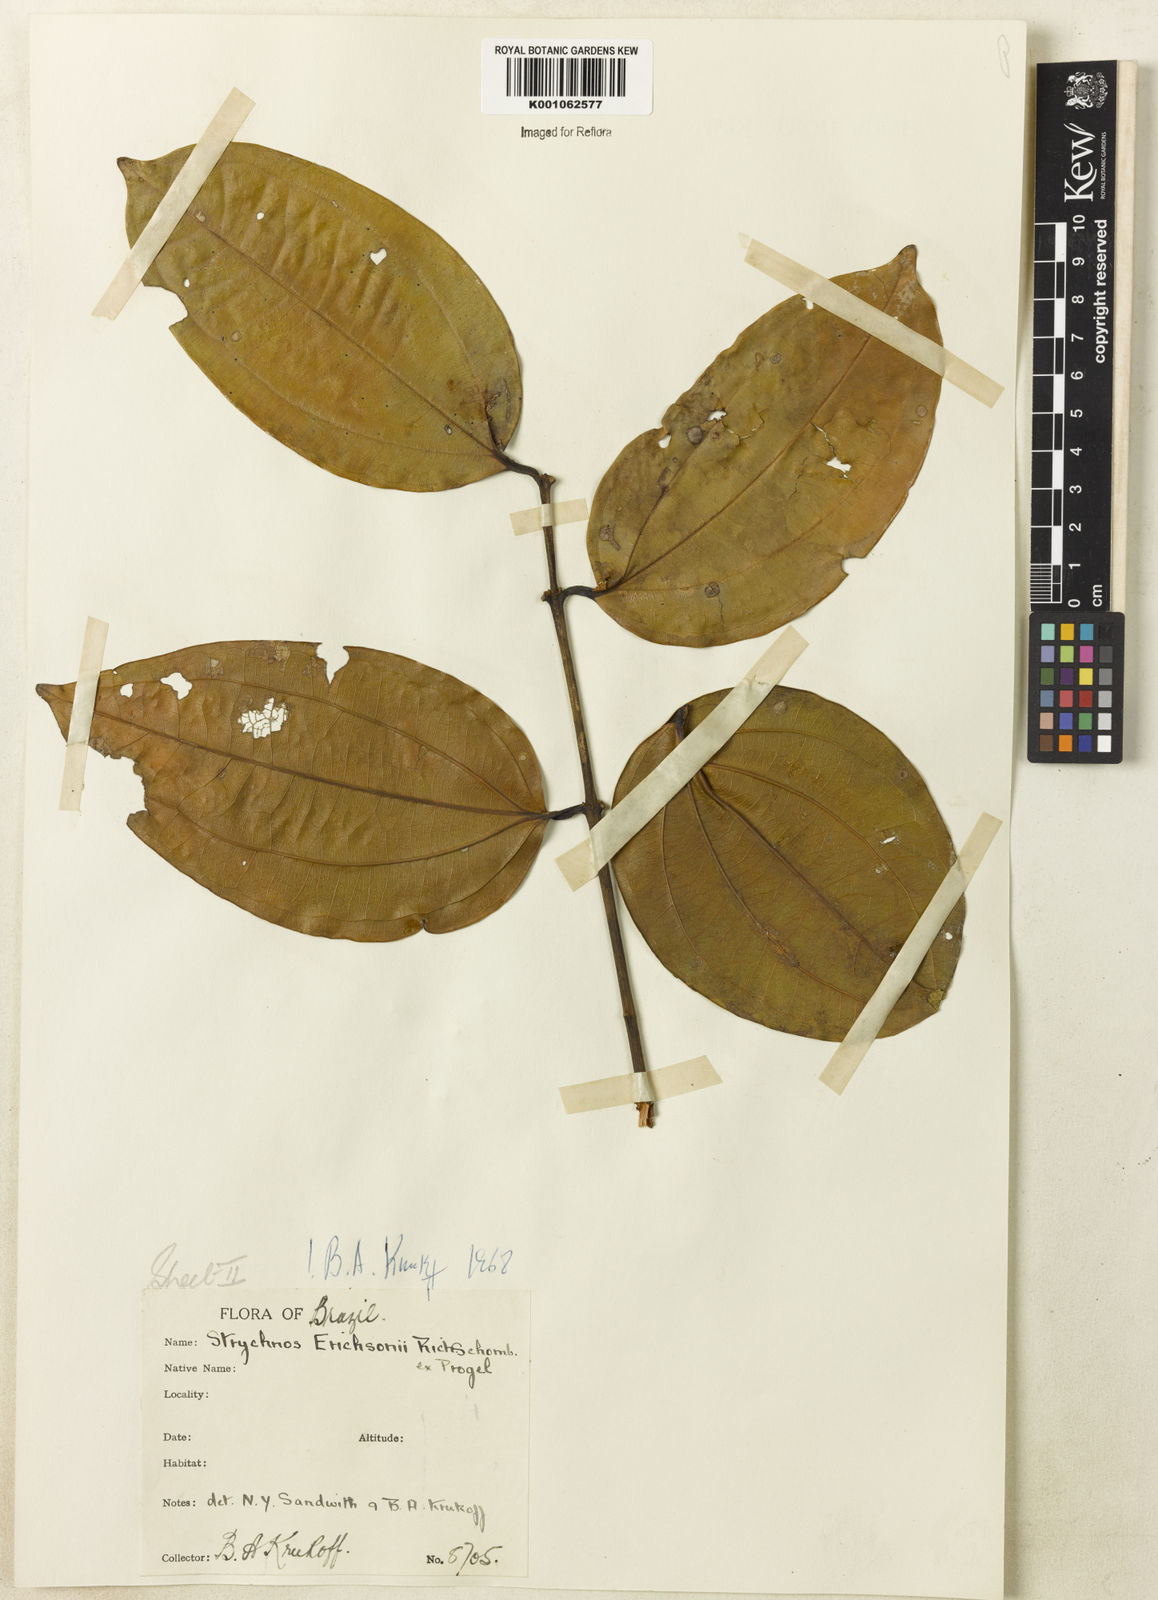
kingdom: Plantae
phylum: Tracheophyta
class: Magnoliopsida
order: Gentianales
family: Loganiaceae
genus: Strychnos
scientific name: Strychnos erichsonii
